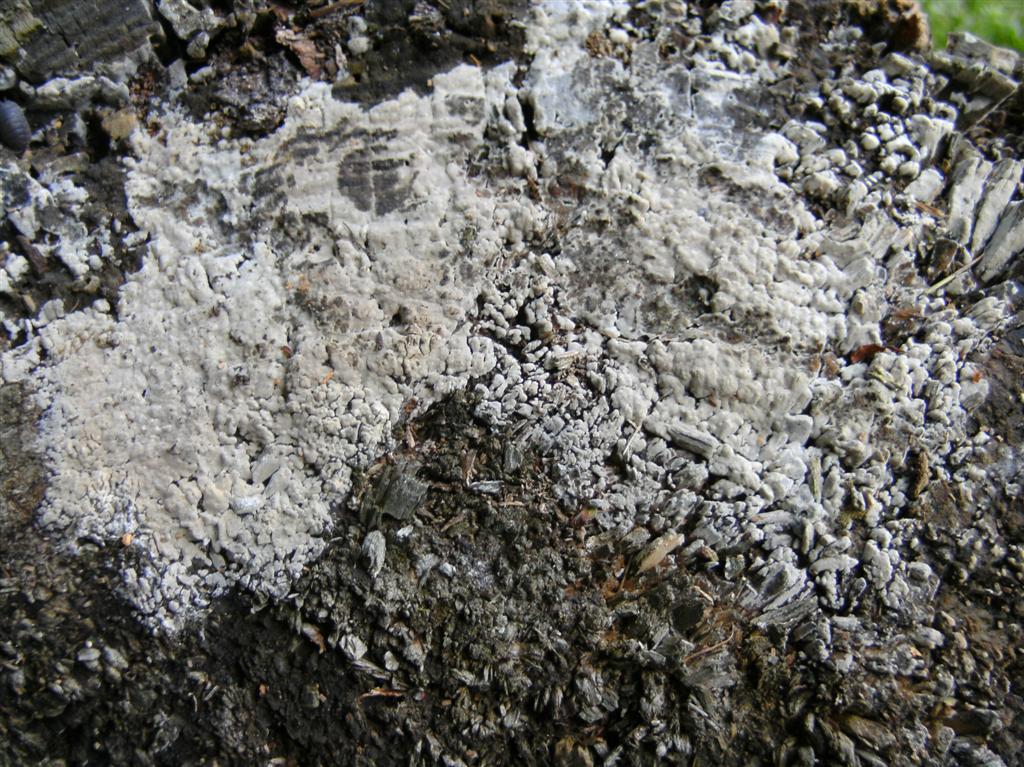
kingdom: Fungi
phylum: Basidiomycota
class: Agaricomycetes
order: Hymenochaetales
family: Rickenellaceae
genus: Peniophorella
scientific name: Peniophorella pubera
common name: dunet kalkskind
